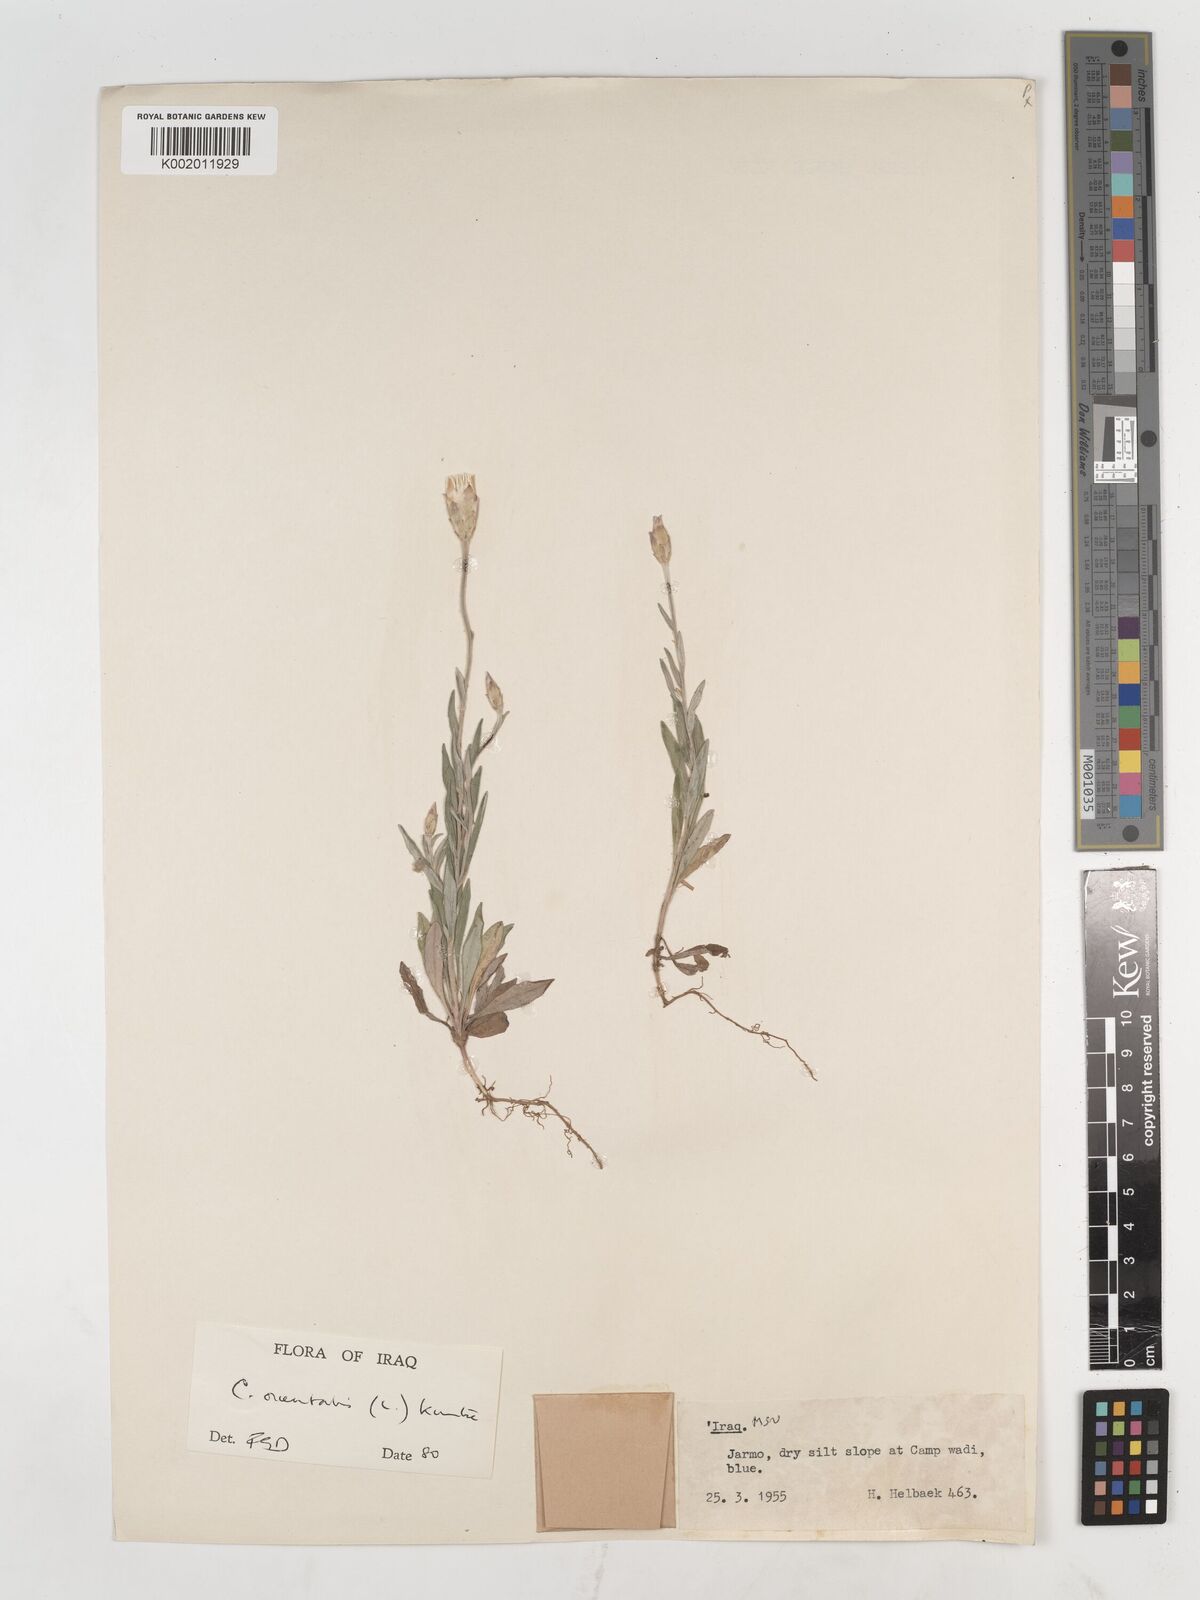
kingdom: Plantae
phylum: Tracheophyta
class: Magnoliopsida
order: Asterales
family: Asteraceae
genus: Chardinia
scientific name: Chardinia orientalis
